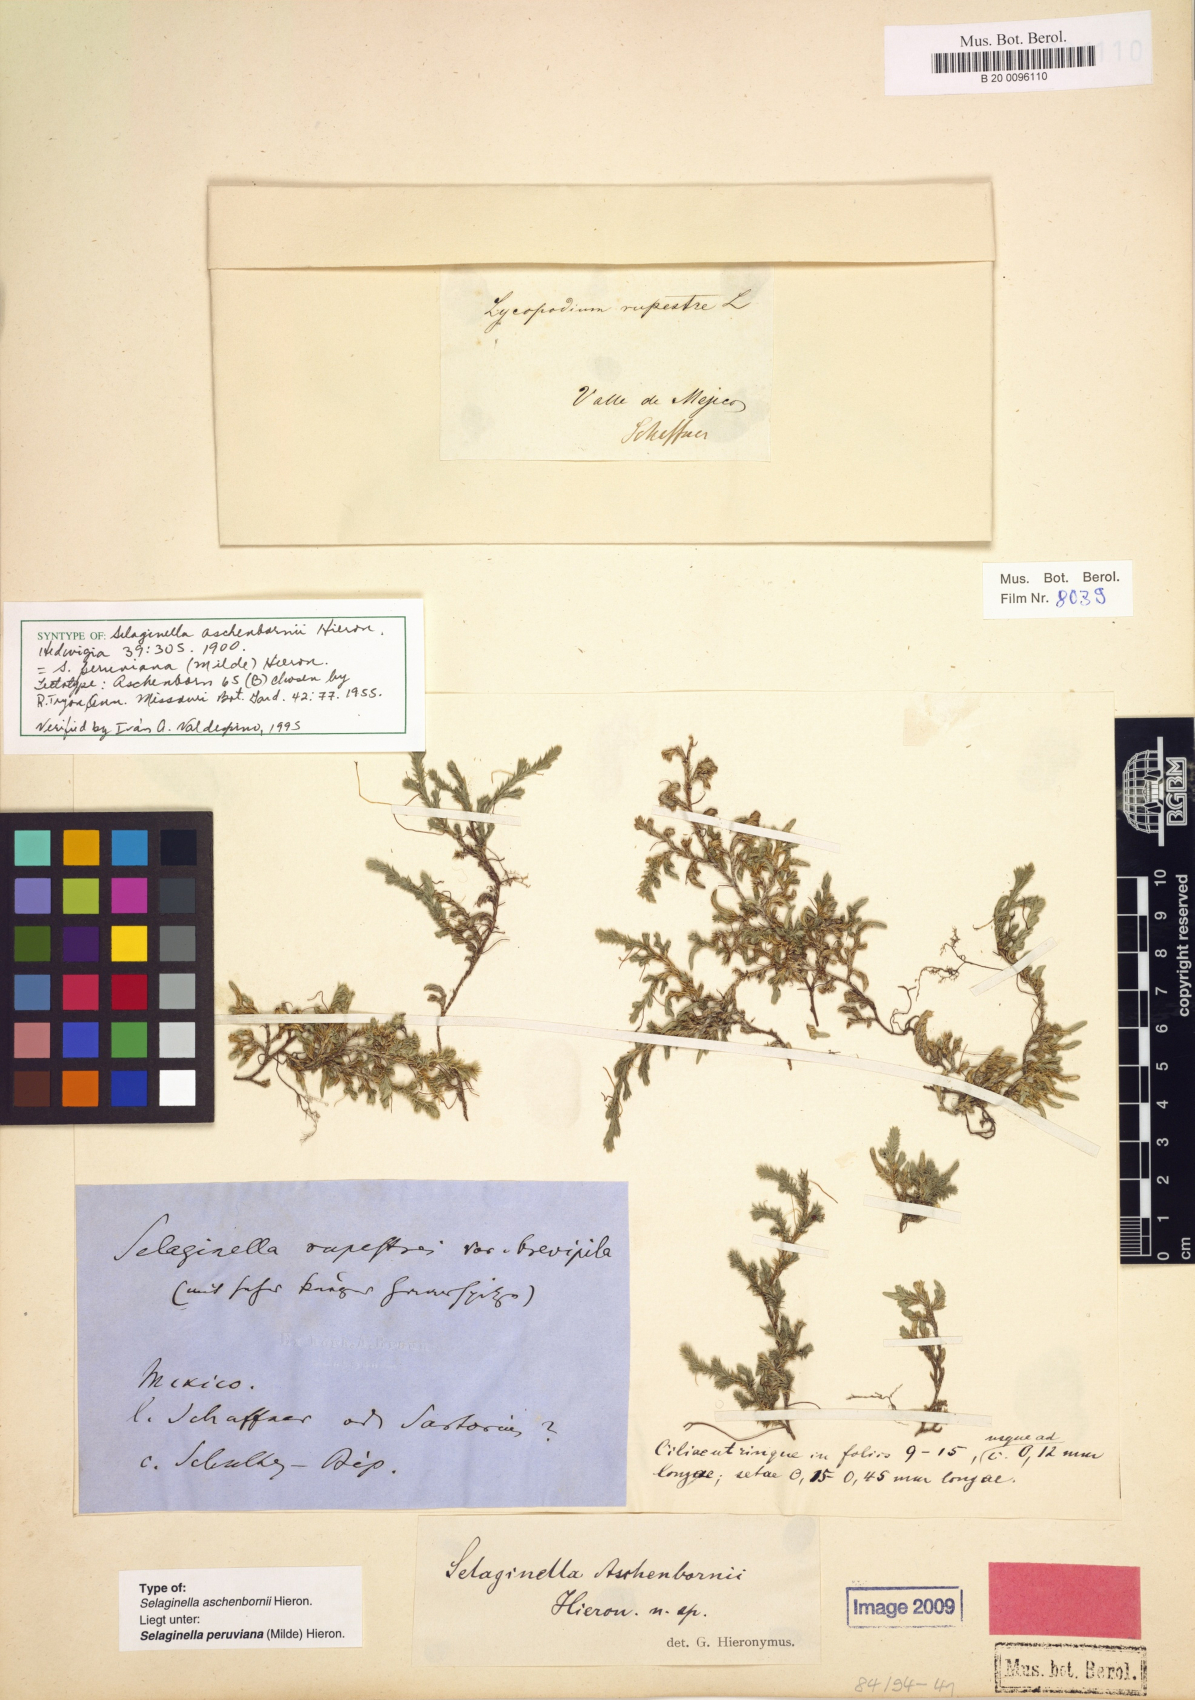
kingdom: Plantae
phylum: Tracheophyta
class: Lycopodiopsida
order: Selaginellales
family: Selaginellaceae
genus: Selaginella
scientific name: Selaginella peruviana
